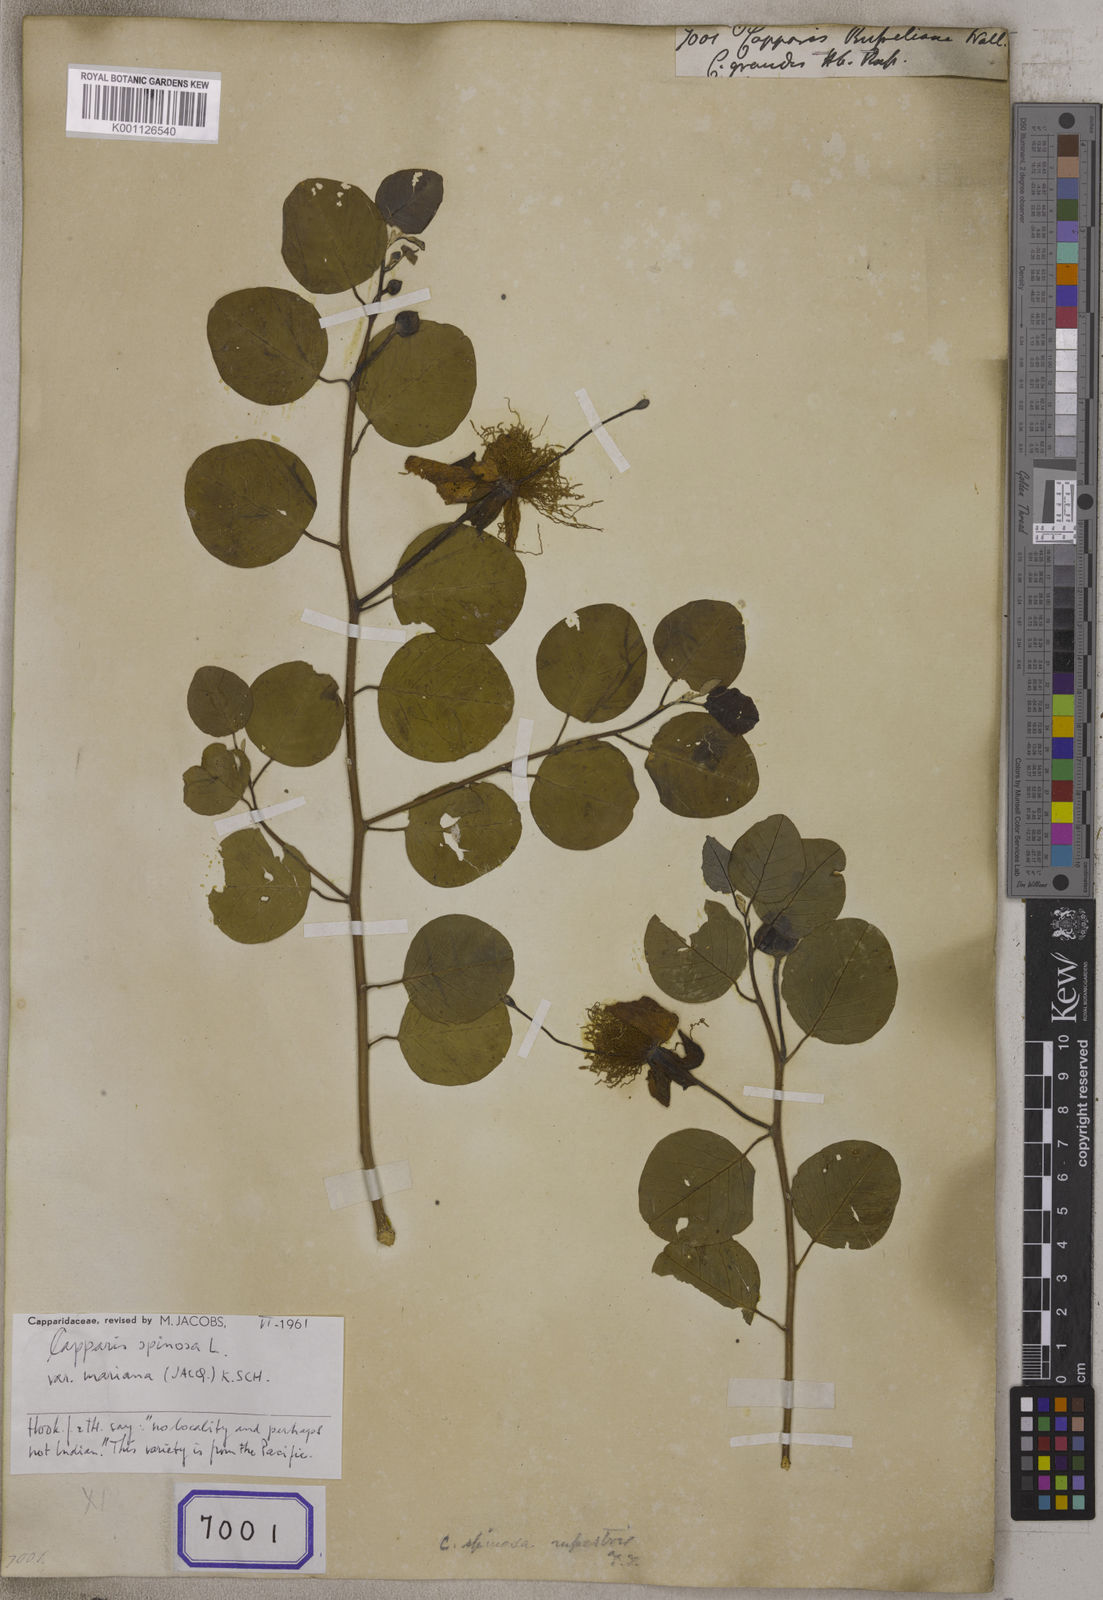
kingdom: Plantae
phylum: Tracheophyta
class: Magnoliopsida
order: Brassicales
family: Capparaceae
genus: Capparis
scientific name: Capparis
